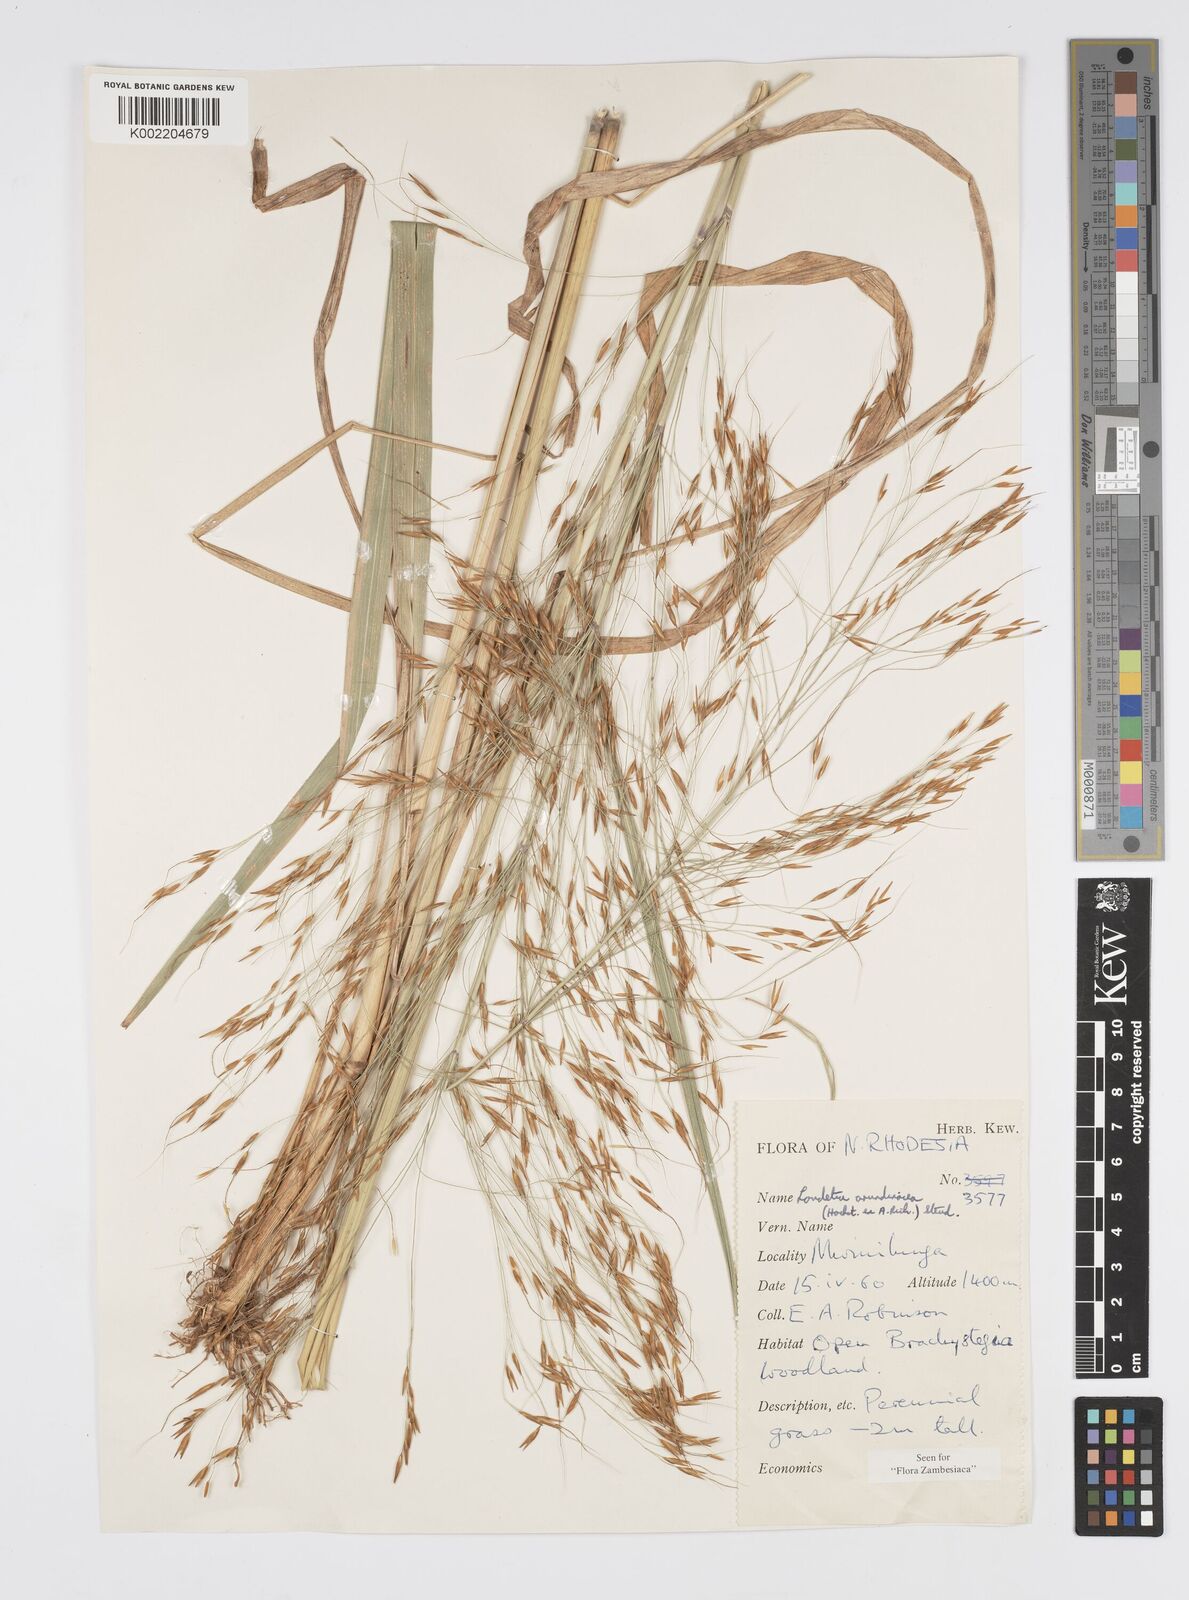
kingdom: Plantae
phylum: Tracheophyta
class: Liliopsida
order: Poales
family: Poaceae
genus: Loudetia
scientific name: Loudetia arundinacea
